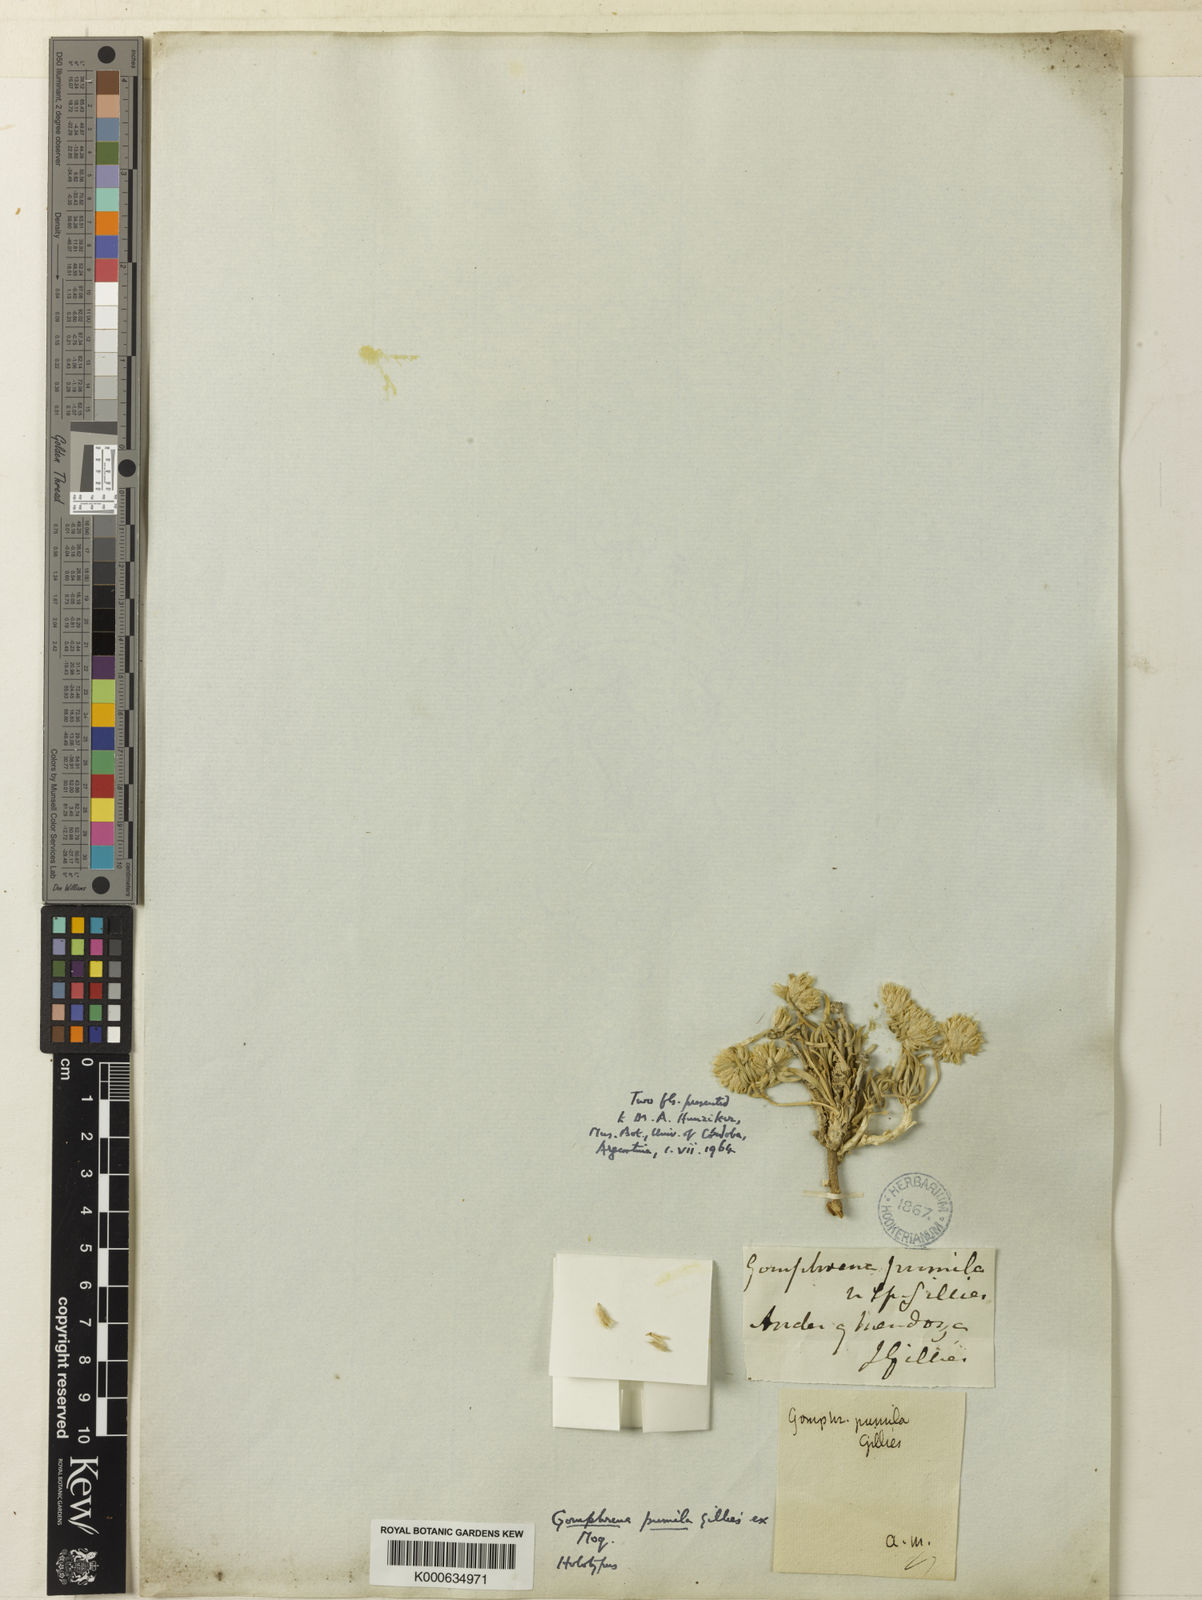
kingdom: Plantae
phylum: Tracheophyta
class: Magnoliopsida
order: Caryophyllales
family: Amaranthaceae
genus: Gomphrena
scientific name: Gomphrena pumila
